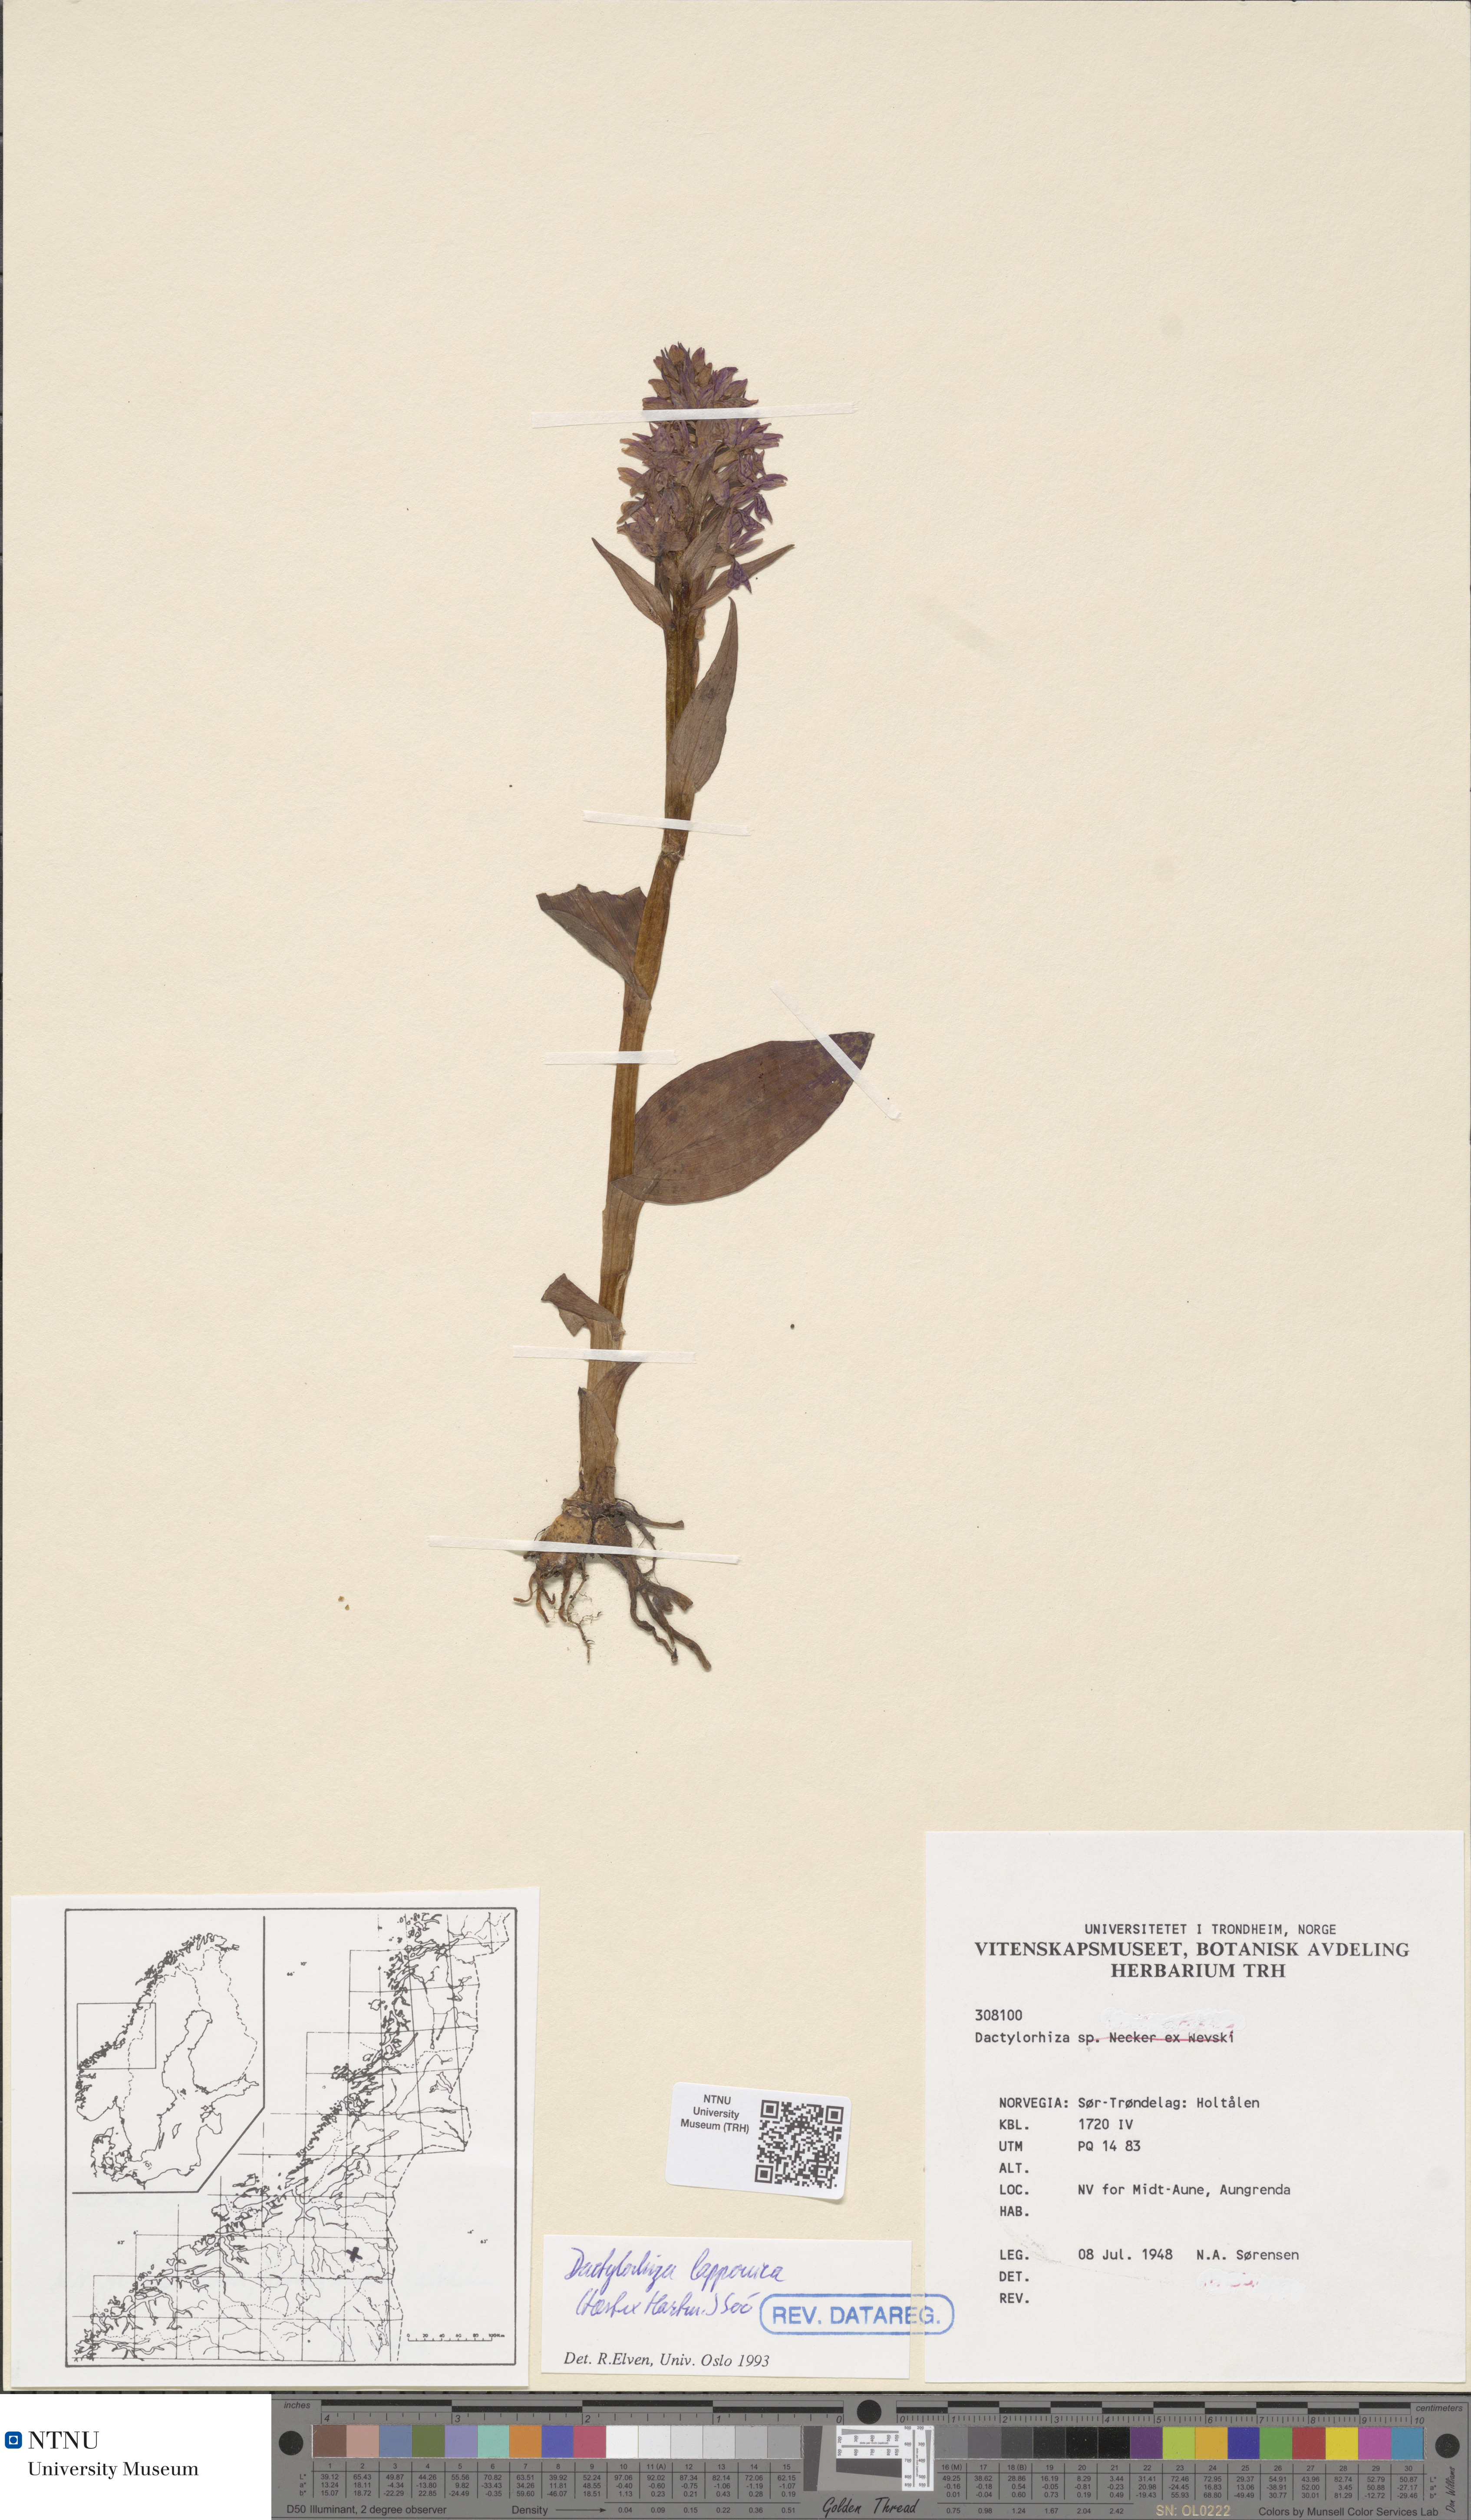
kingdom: Plantae
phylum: Tracheophyta
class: Liliopsida
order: Asparagales
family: Orchidaceae
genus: Dactylorhiza
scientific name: Dactylorhiza majalis
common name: Marsh orchid
